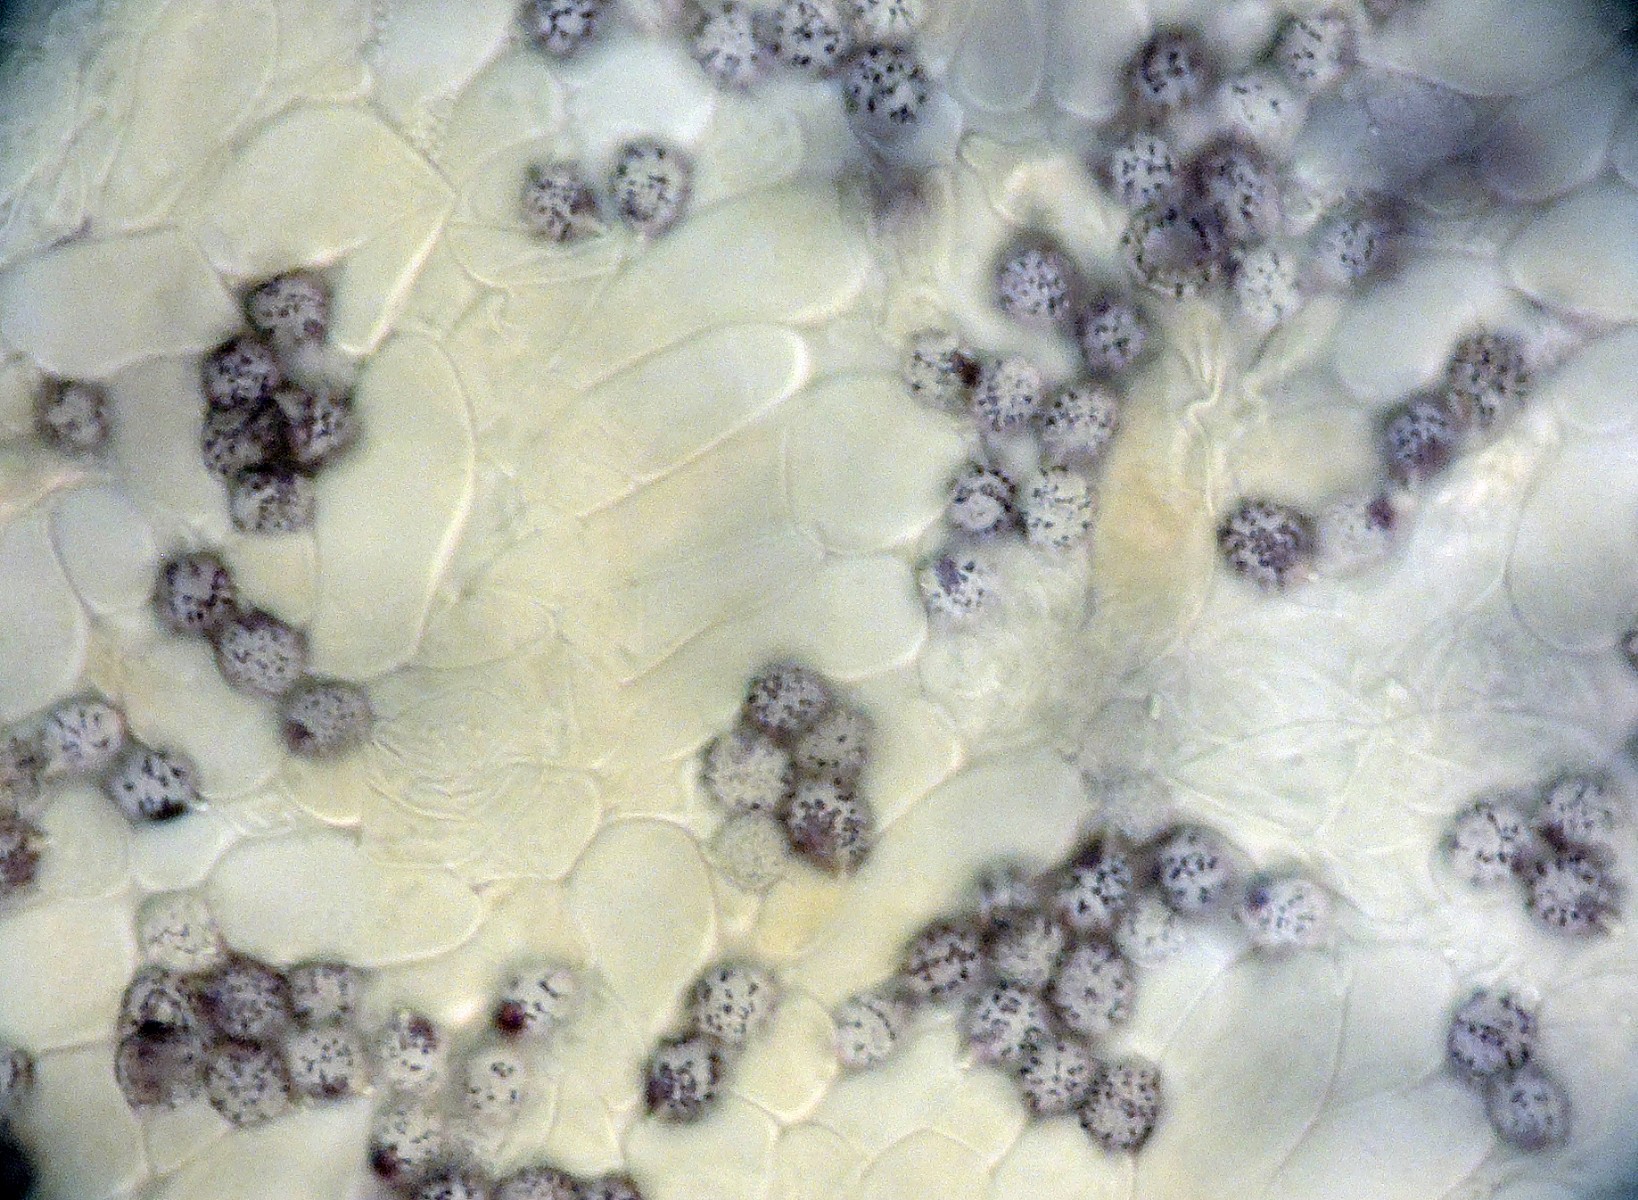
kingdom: Fungi
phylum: Basidiomycota
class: Agaricomycetes
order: Russulales
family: Russulaceae
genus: Russula
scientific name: Russula fontqueri
